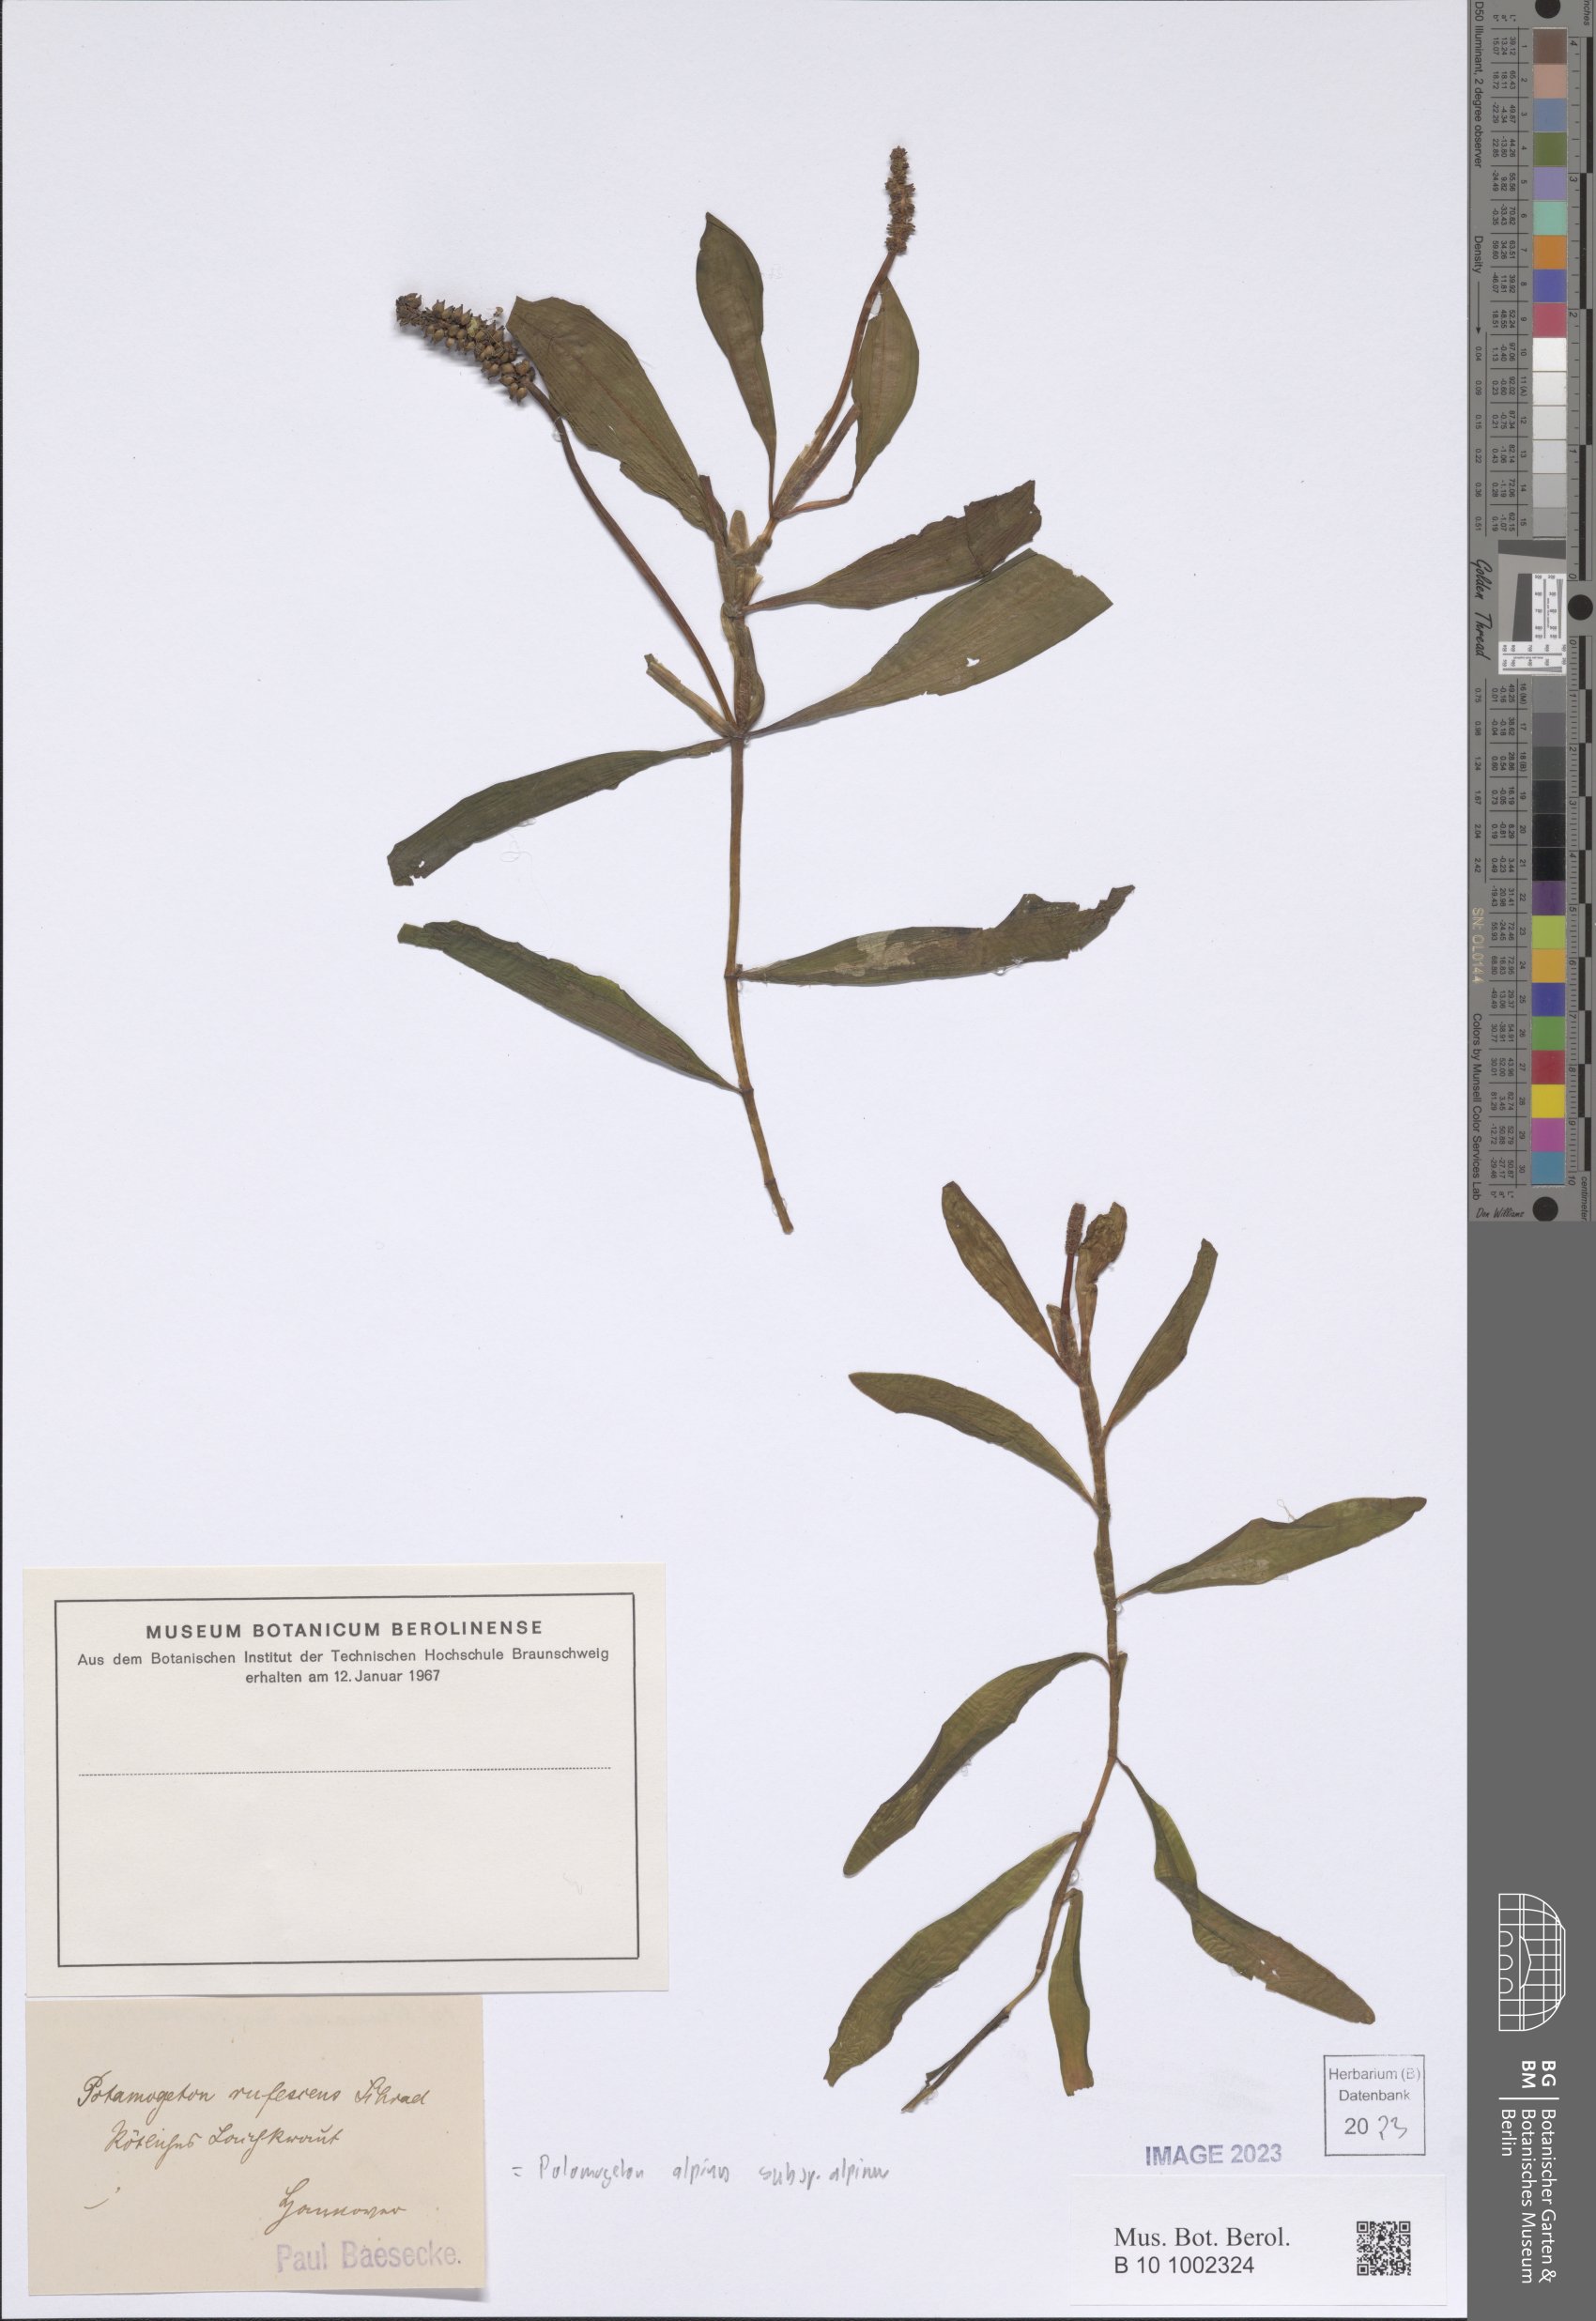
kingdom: Plantae
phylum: Tracheophyta
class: Liliopsida
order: Alismatales
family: Potamogetonaceae
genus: Potamogeton
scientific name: Potamogeton alpinus
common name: Red pondweed
